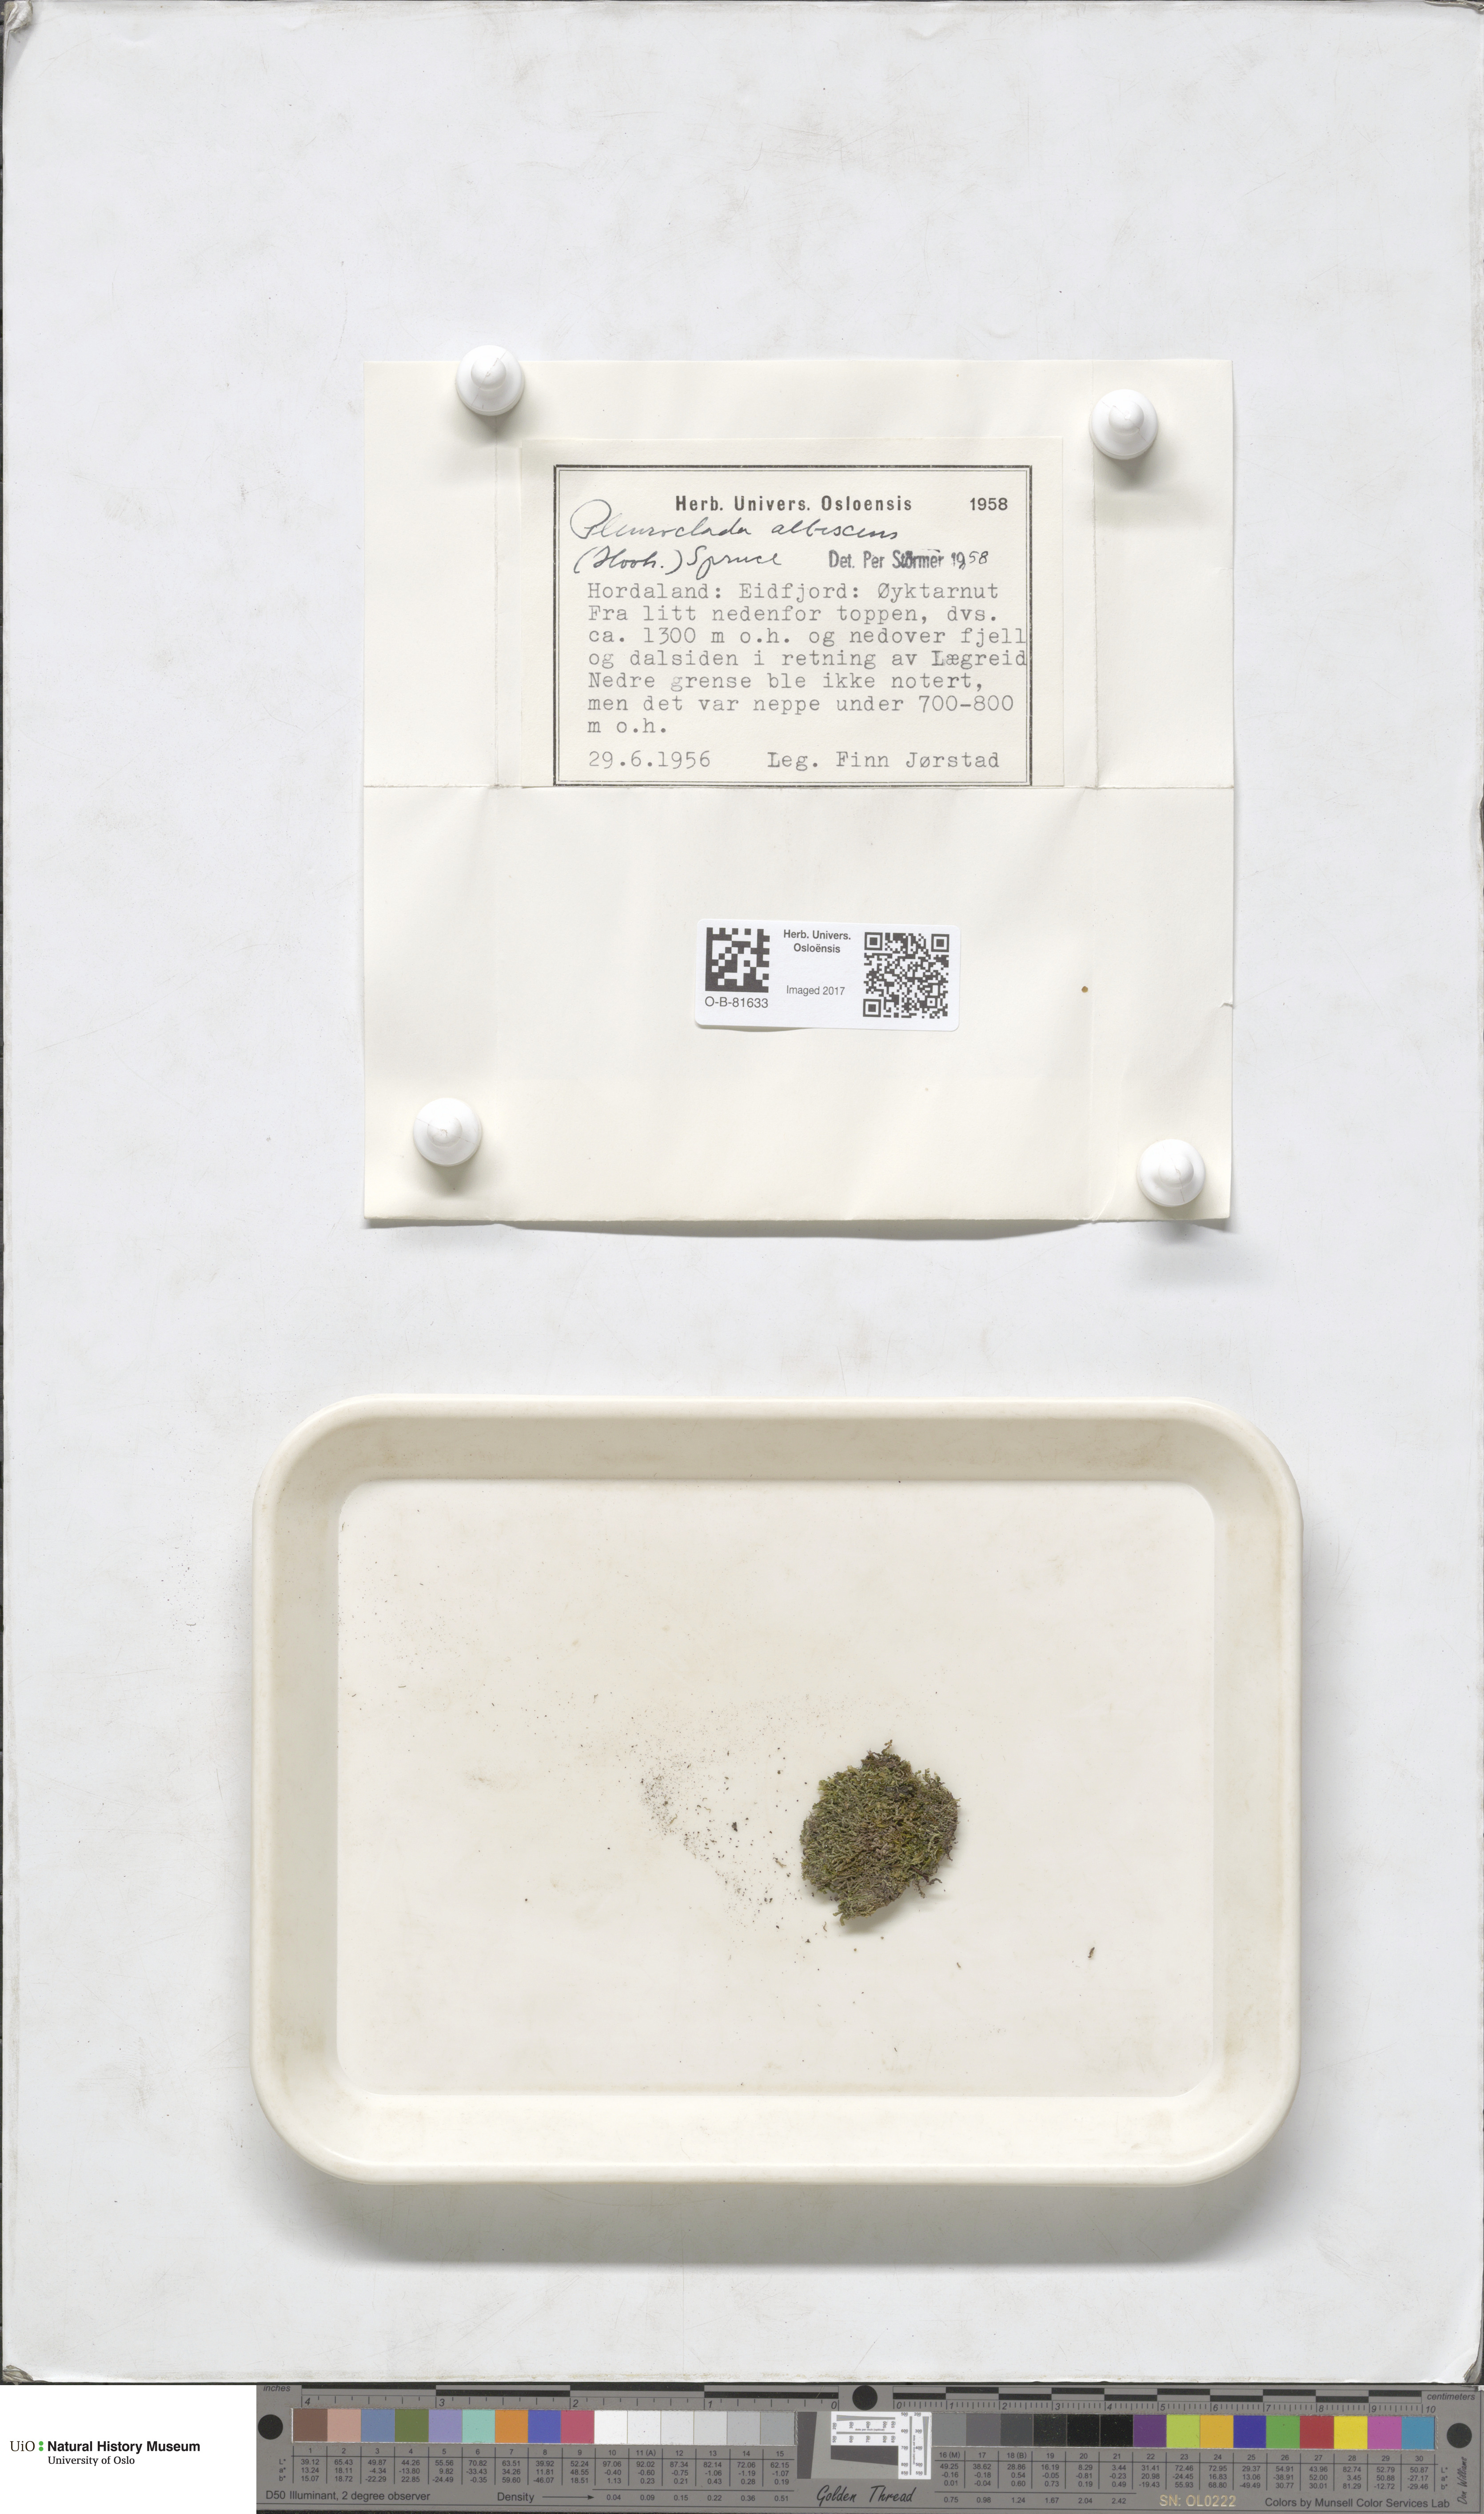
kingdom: Plantae
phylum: Marchantiophyta
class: Jungermanniopsida
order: Jungermanniales
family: Cephaloziaceae
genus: Fuscocephaloziopsis
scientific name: Fuscocephaloziopsis albescens
